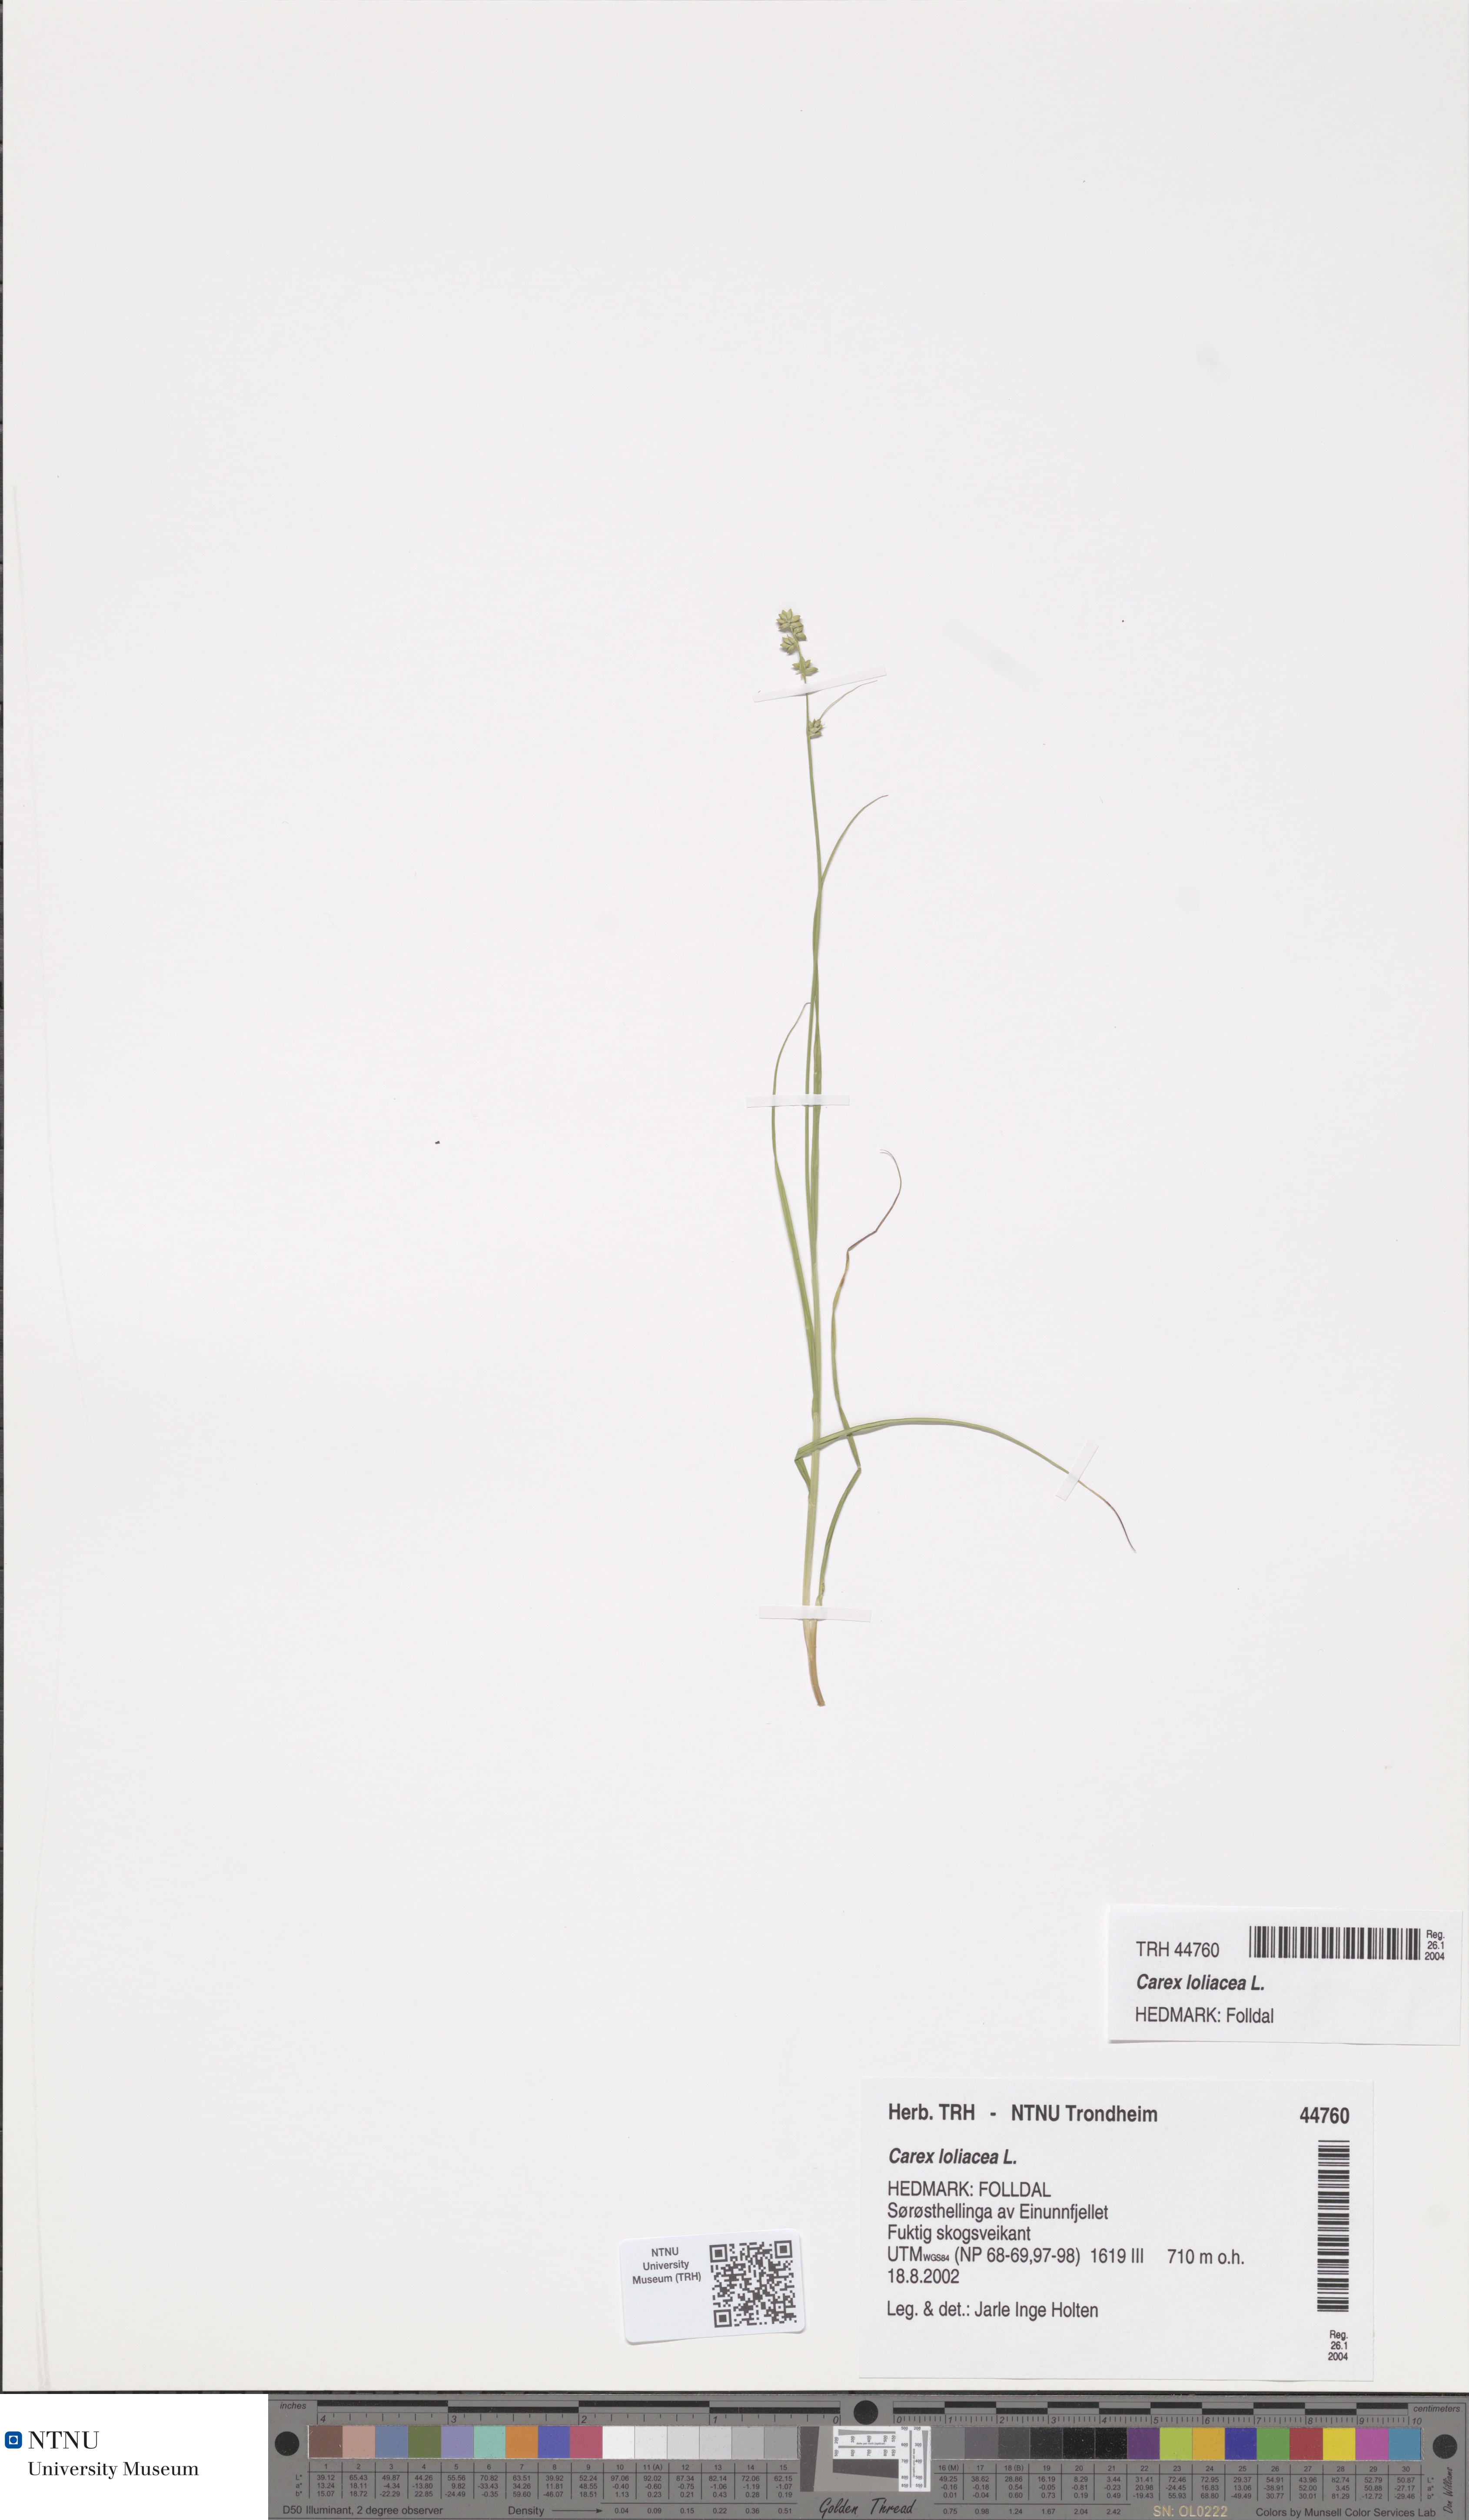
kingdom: Plantae
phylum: Tracheophyta
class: Liliopsida
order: Poales
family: Cyperaceae
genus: Carex
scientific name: Carex loliacea
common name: Ryegrass sedge
